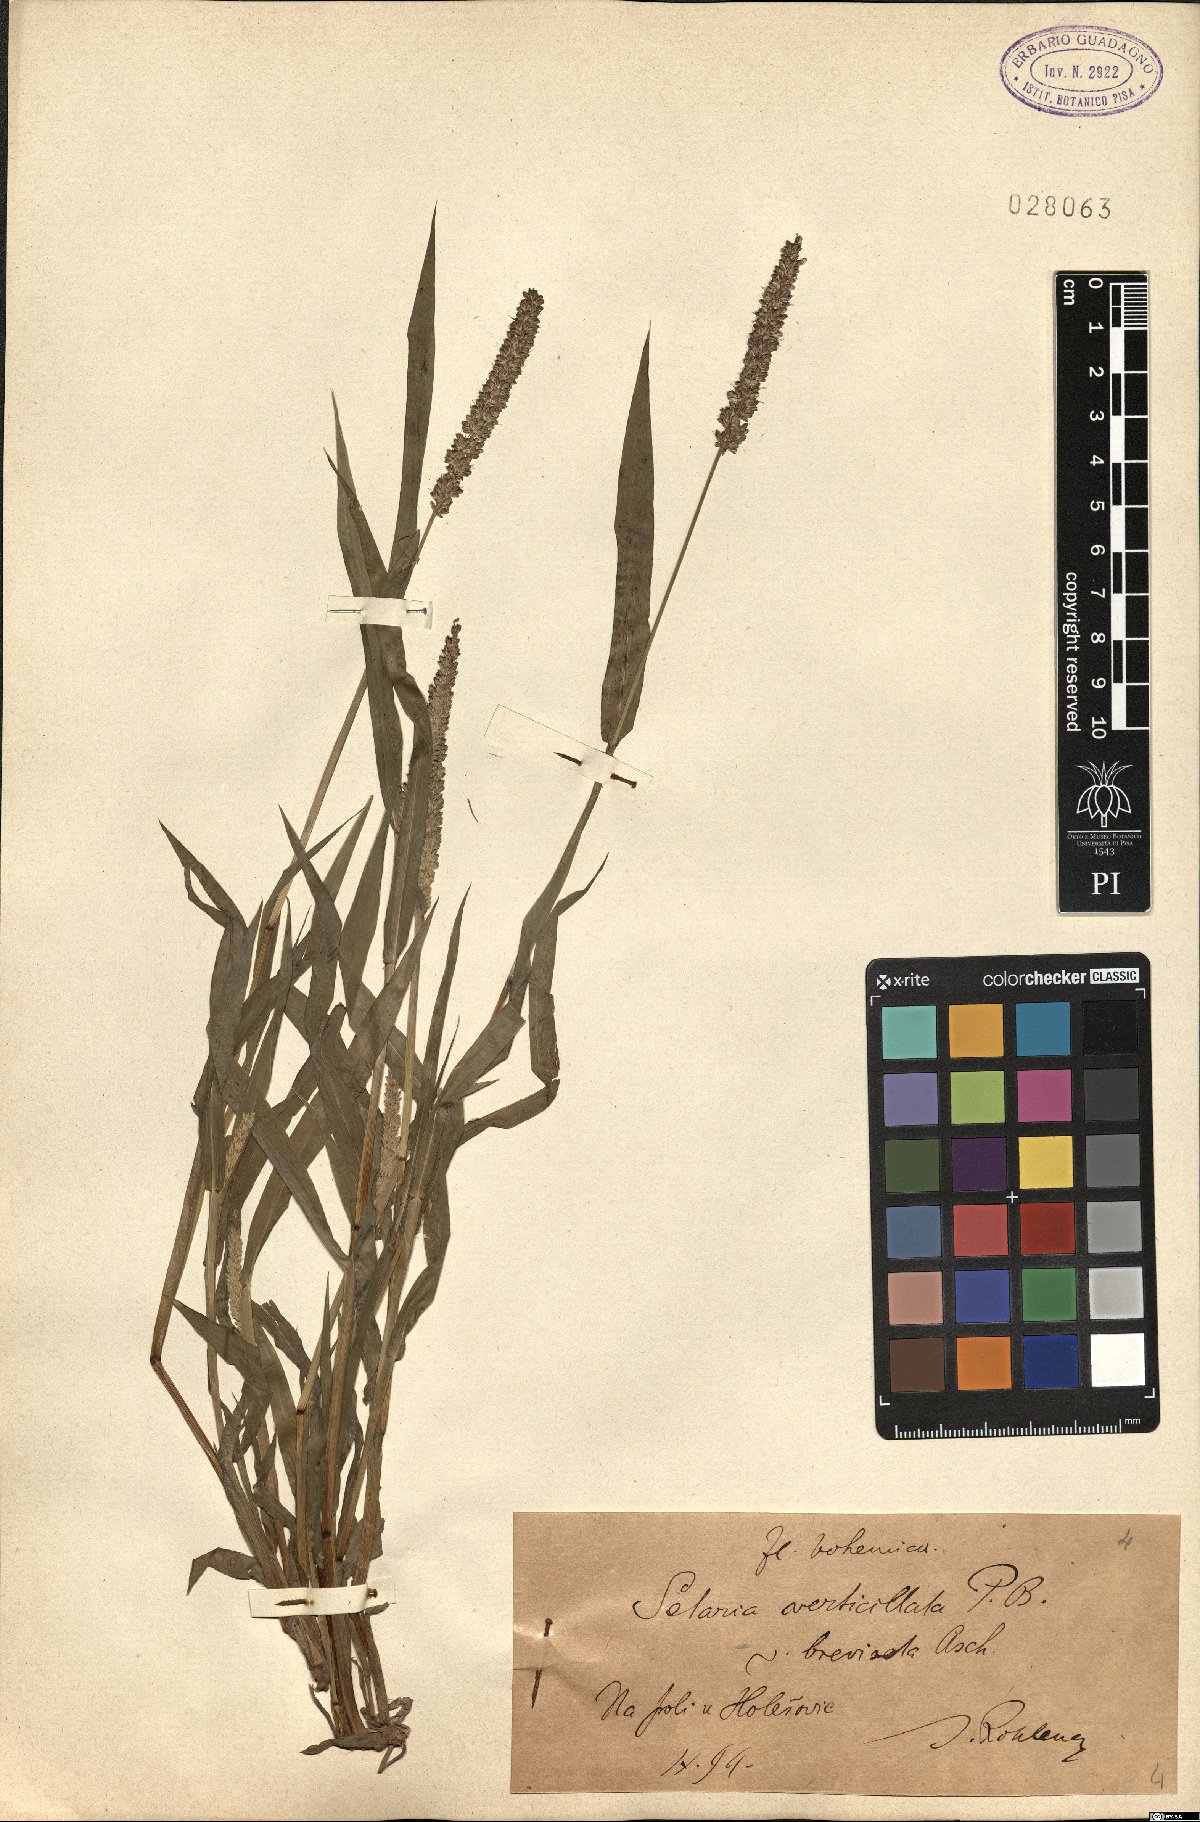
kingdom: Plantae
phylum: Tracheophyta
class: Liliopsida
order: Poales
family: Poaceae
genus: Setaria
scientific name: Setaria verticillata
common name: Hooked bristlegrass
